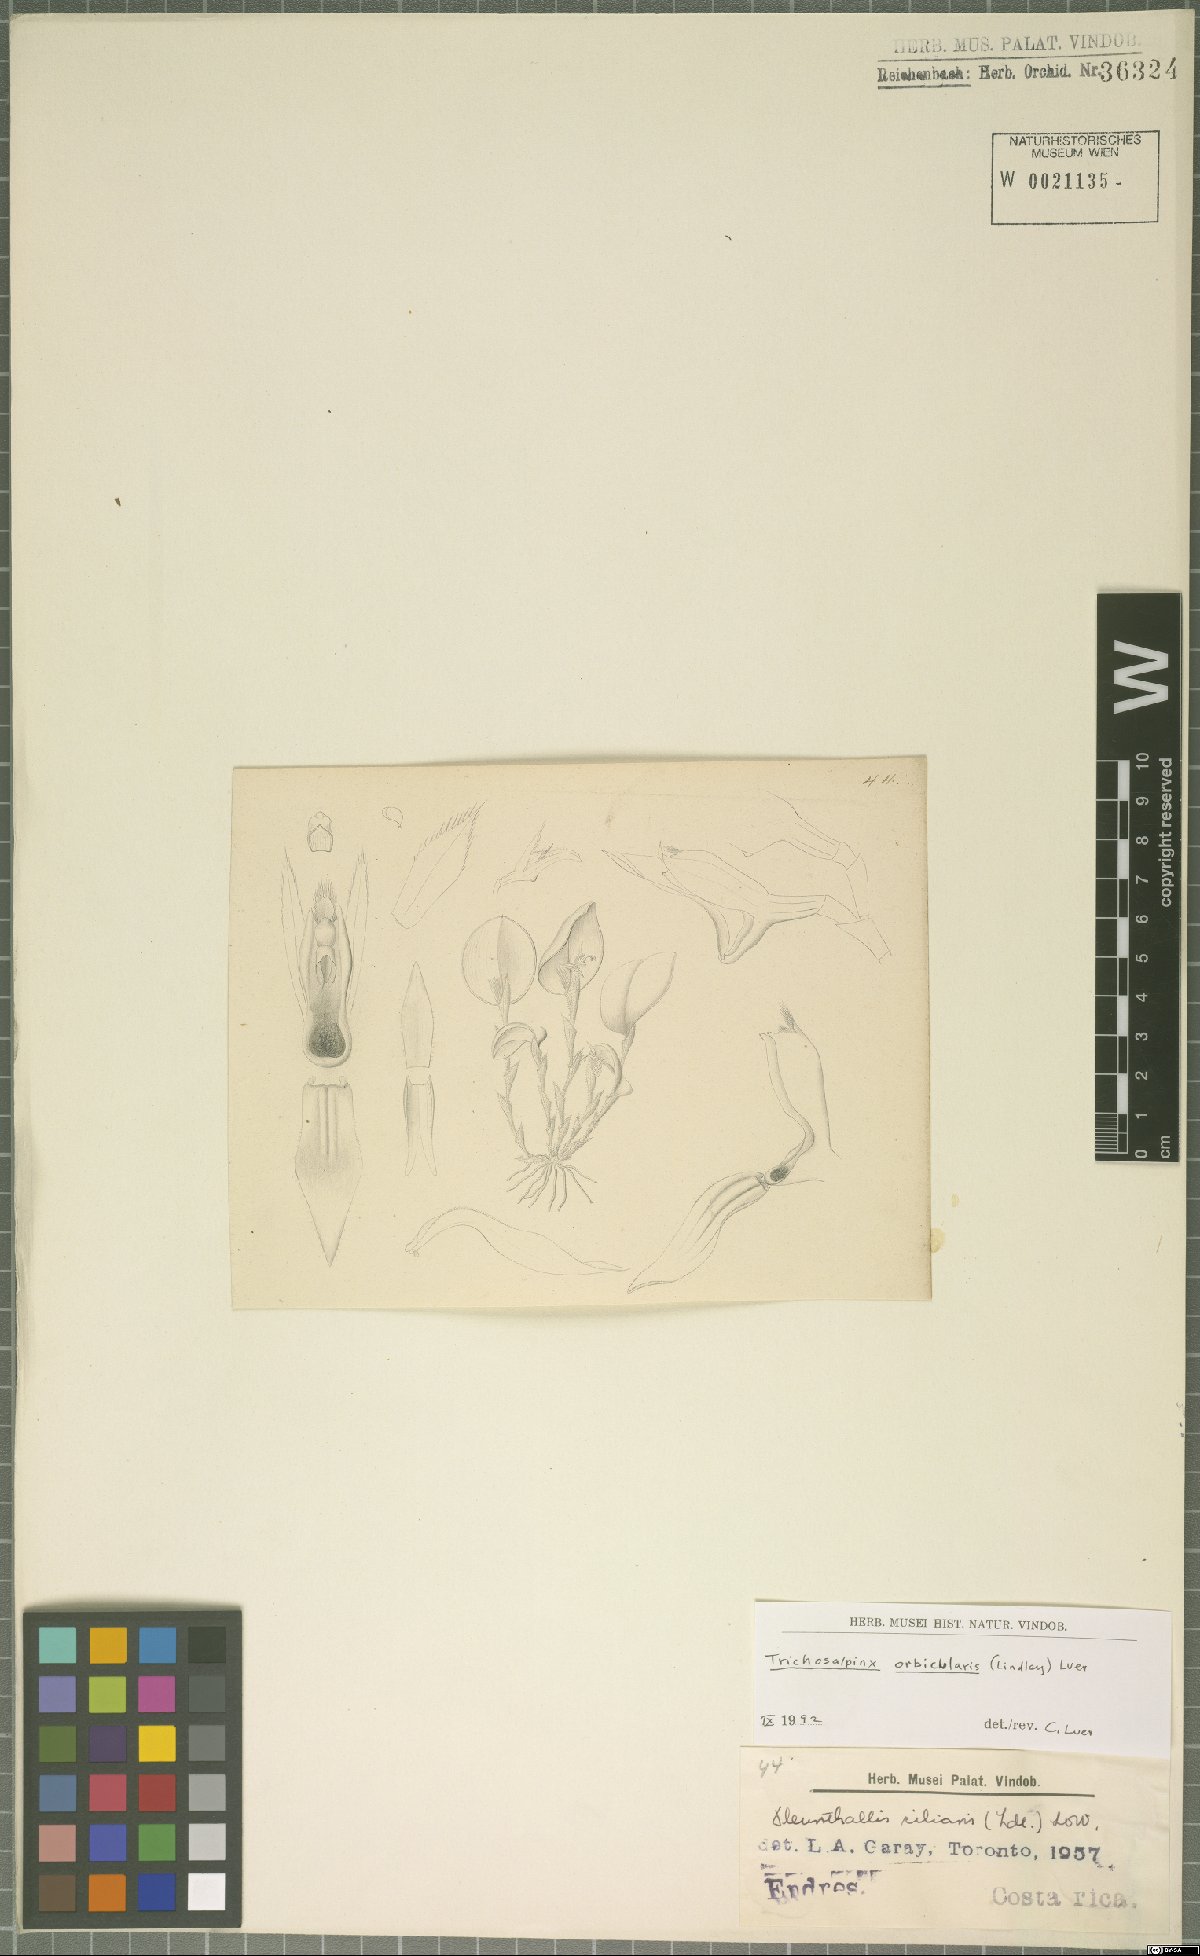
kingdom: Plantae
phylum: Tracheophyta
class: Liliopsida
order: Asparagales
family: Orchidaceae
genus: Trichosalpinx
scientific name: Trichosalpinx orbicularis
